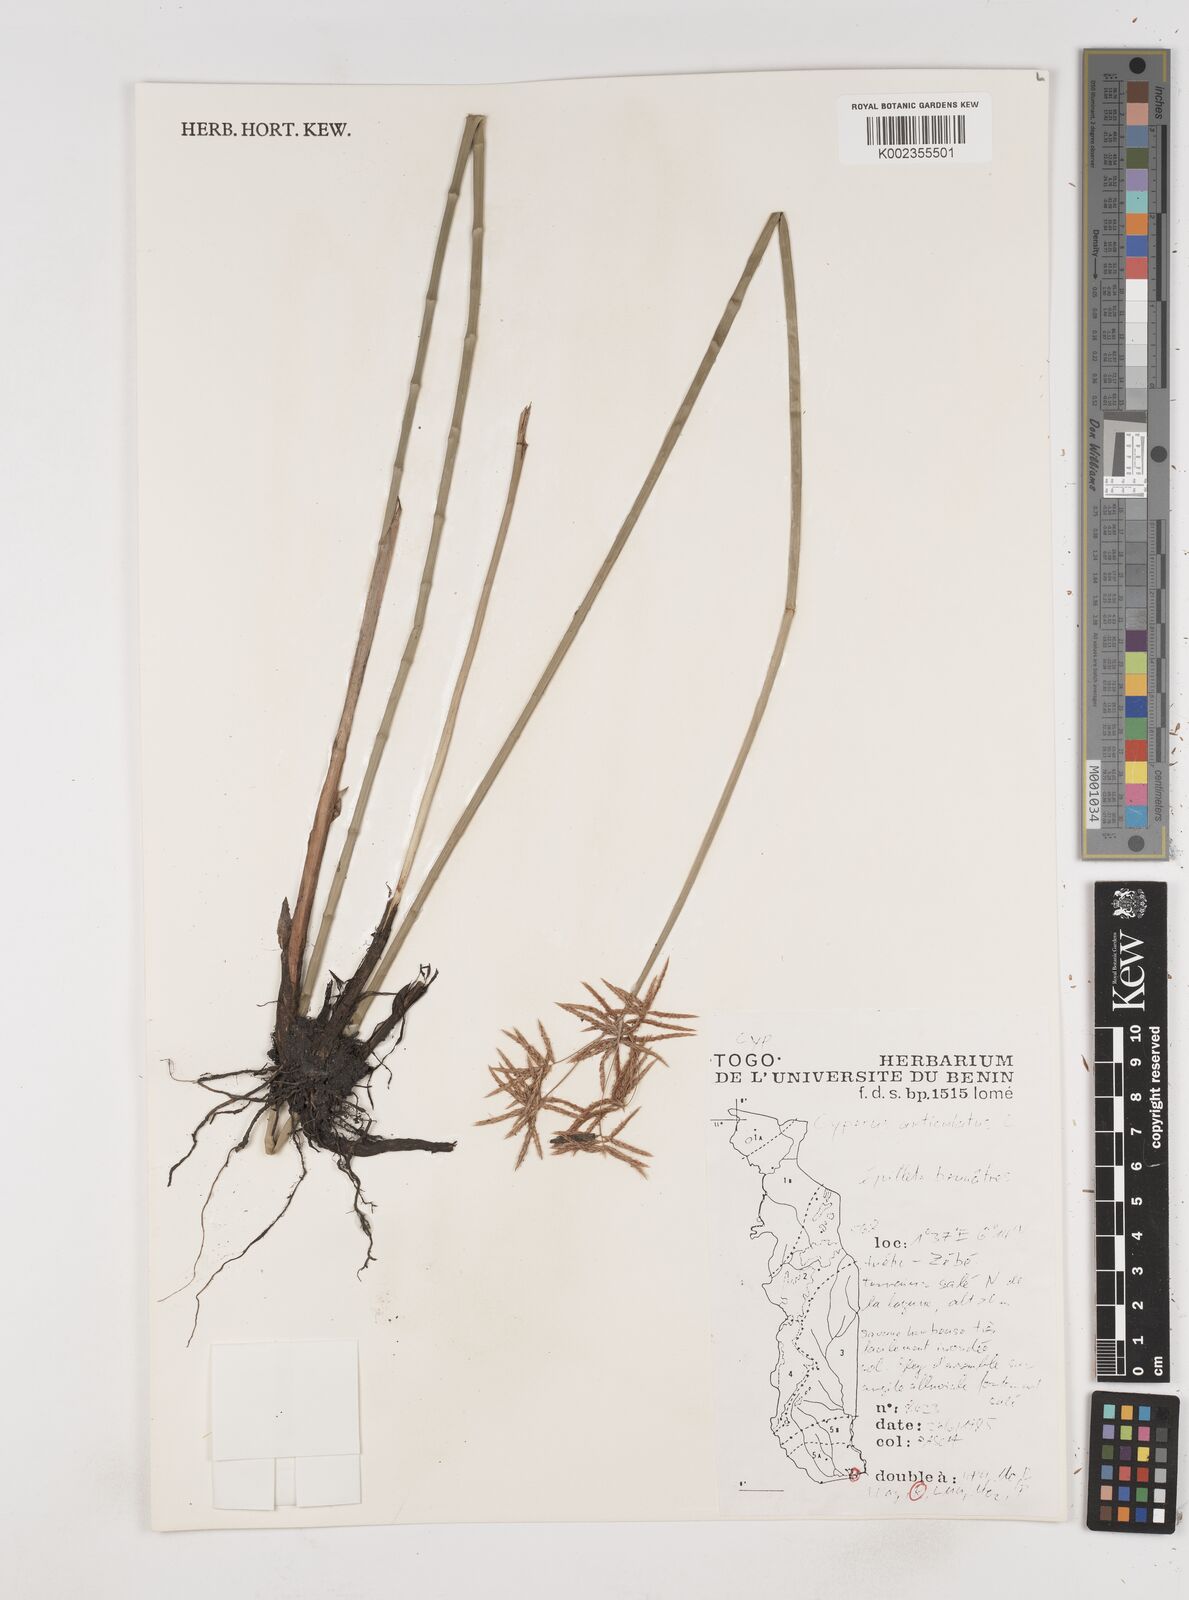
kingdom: Plantae
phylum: Tracheophyta
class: Liliopsida
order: Poales
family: Cyperaceae
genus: Cyperus
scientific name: Cyperus articulatus
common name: Jointed flatsedge
